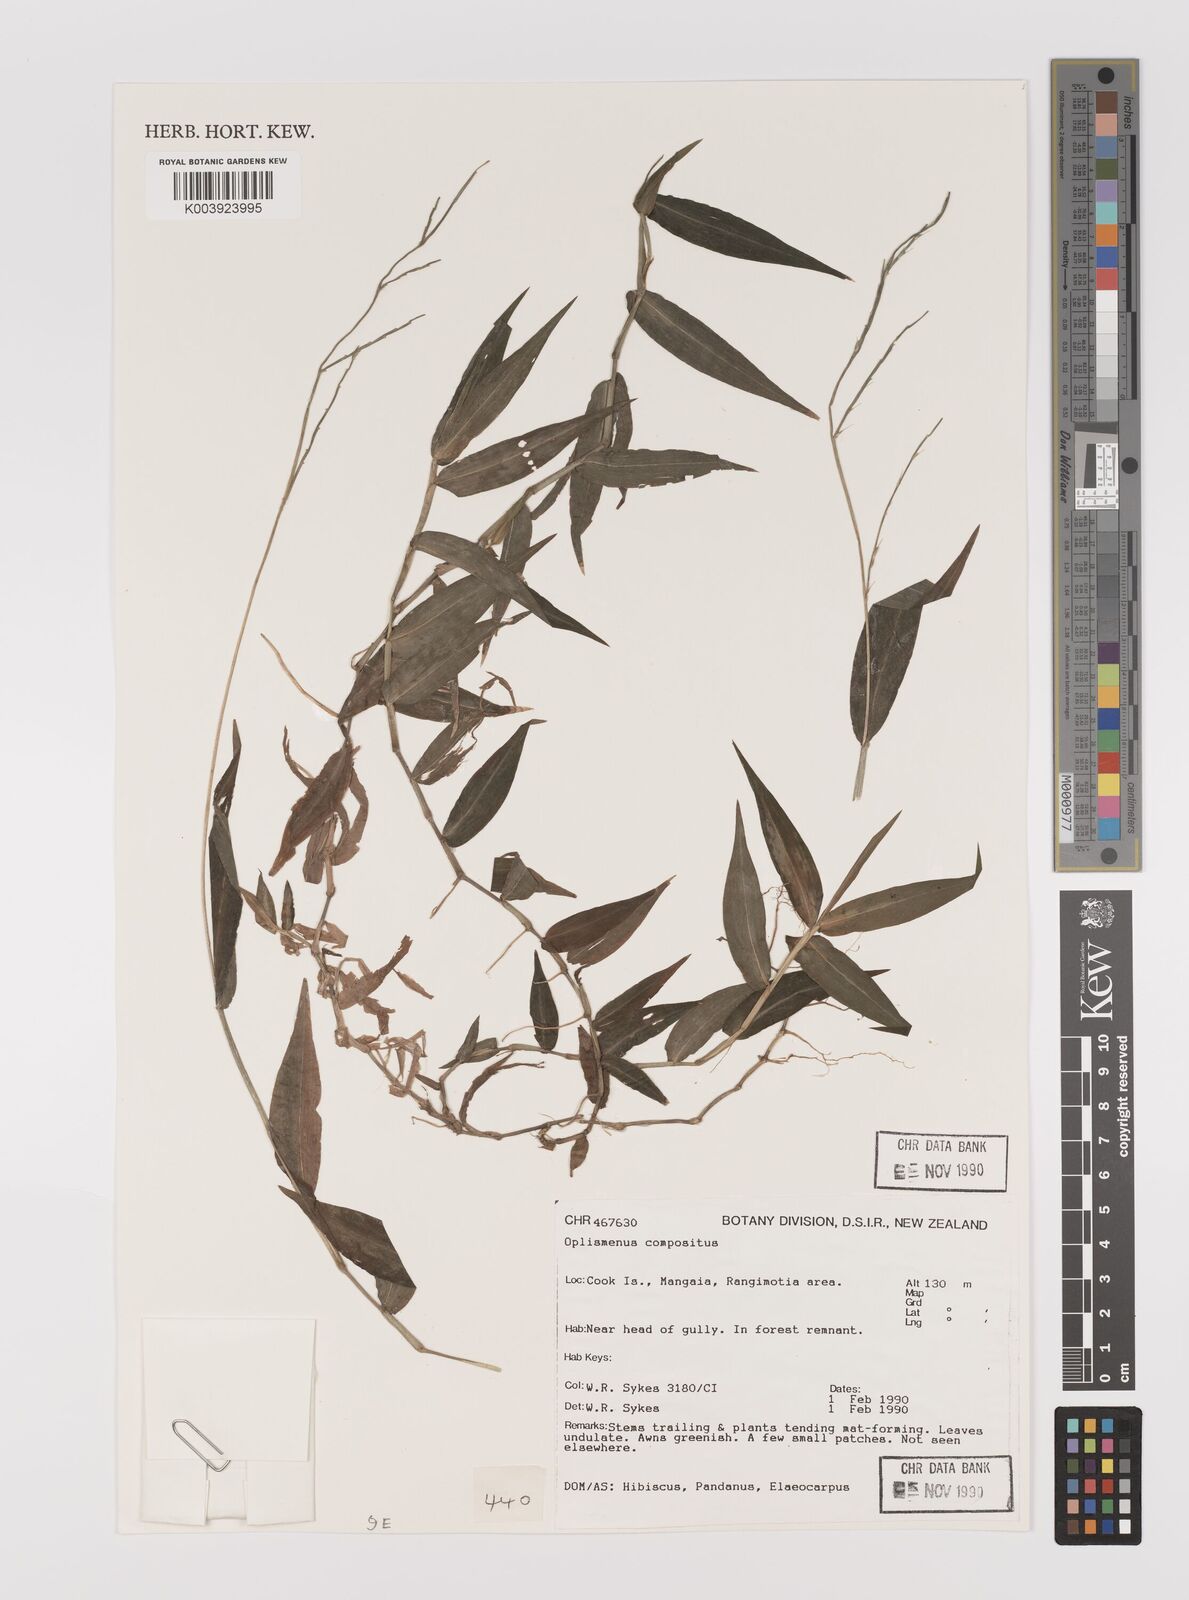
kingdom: Plantae
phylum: Tracheophyta
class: Liliopsida
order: Poales
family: Poaceae
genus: Oplismenus
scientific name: Oplismenus compositus
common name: Running mountain grass
